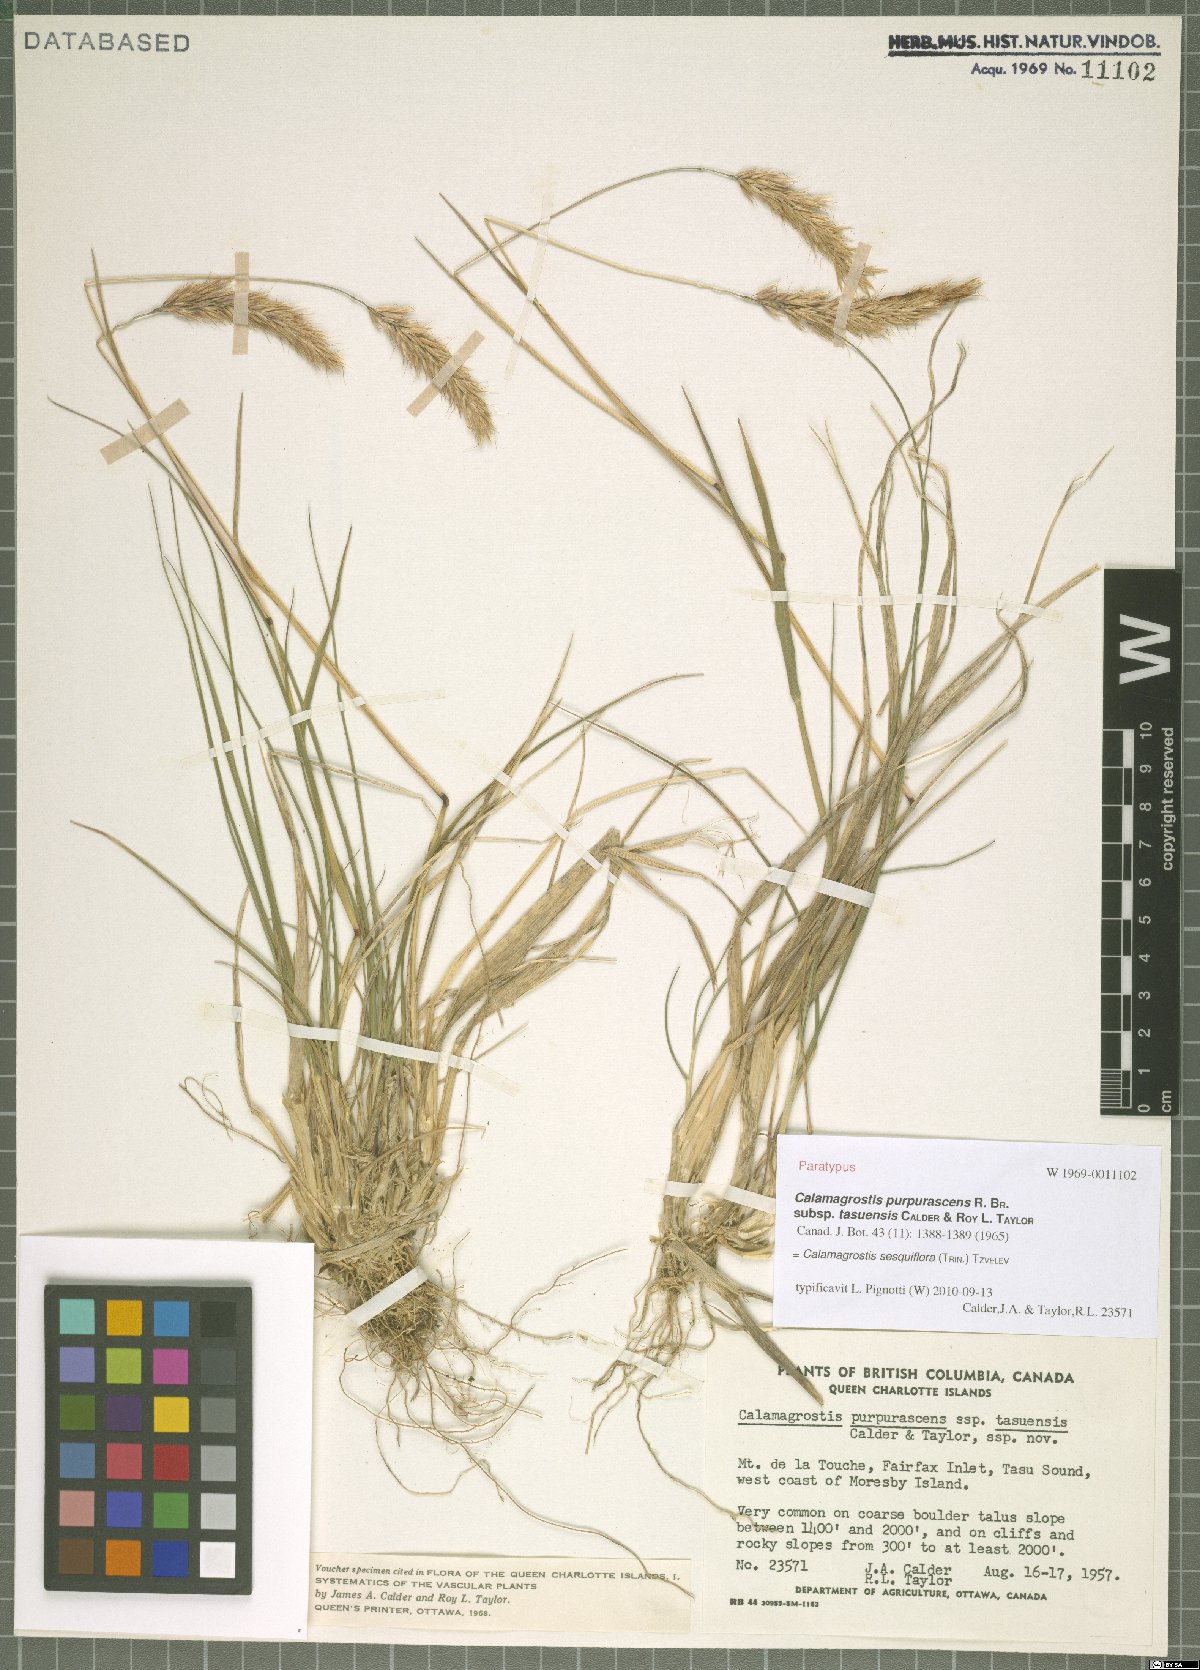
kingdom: Plantae
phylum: Tracheophyta
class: Liliopsida
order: Poales
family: Poaceae
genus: Calamagrostis
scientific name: Calamagrostis sesquiflora
